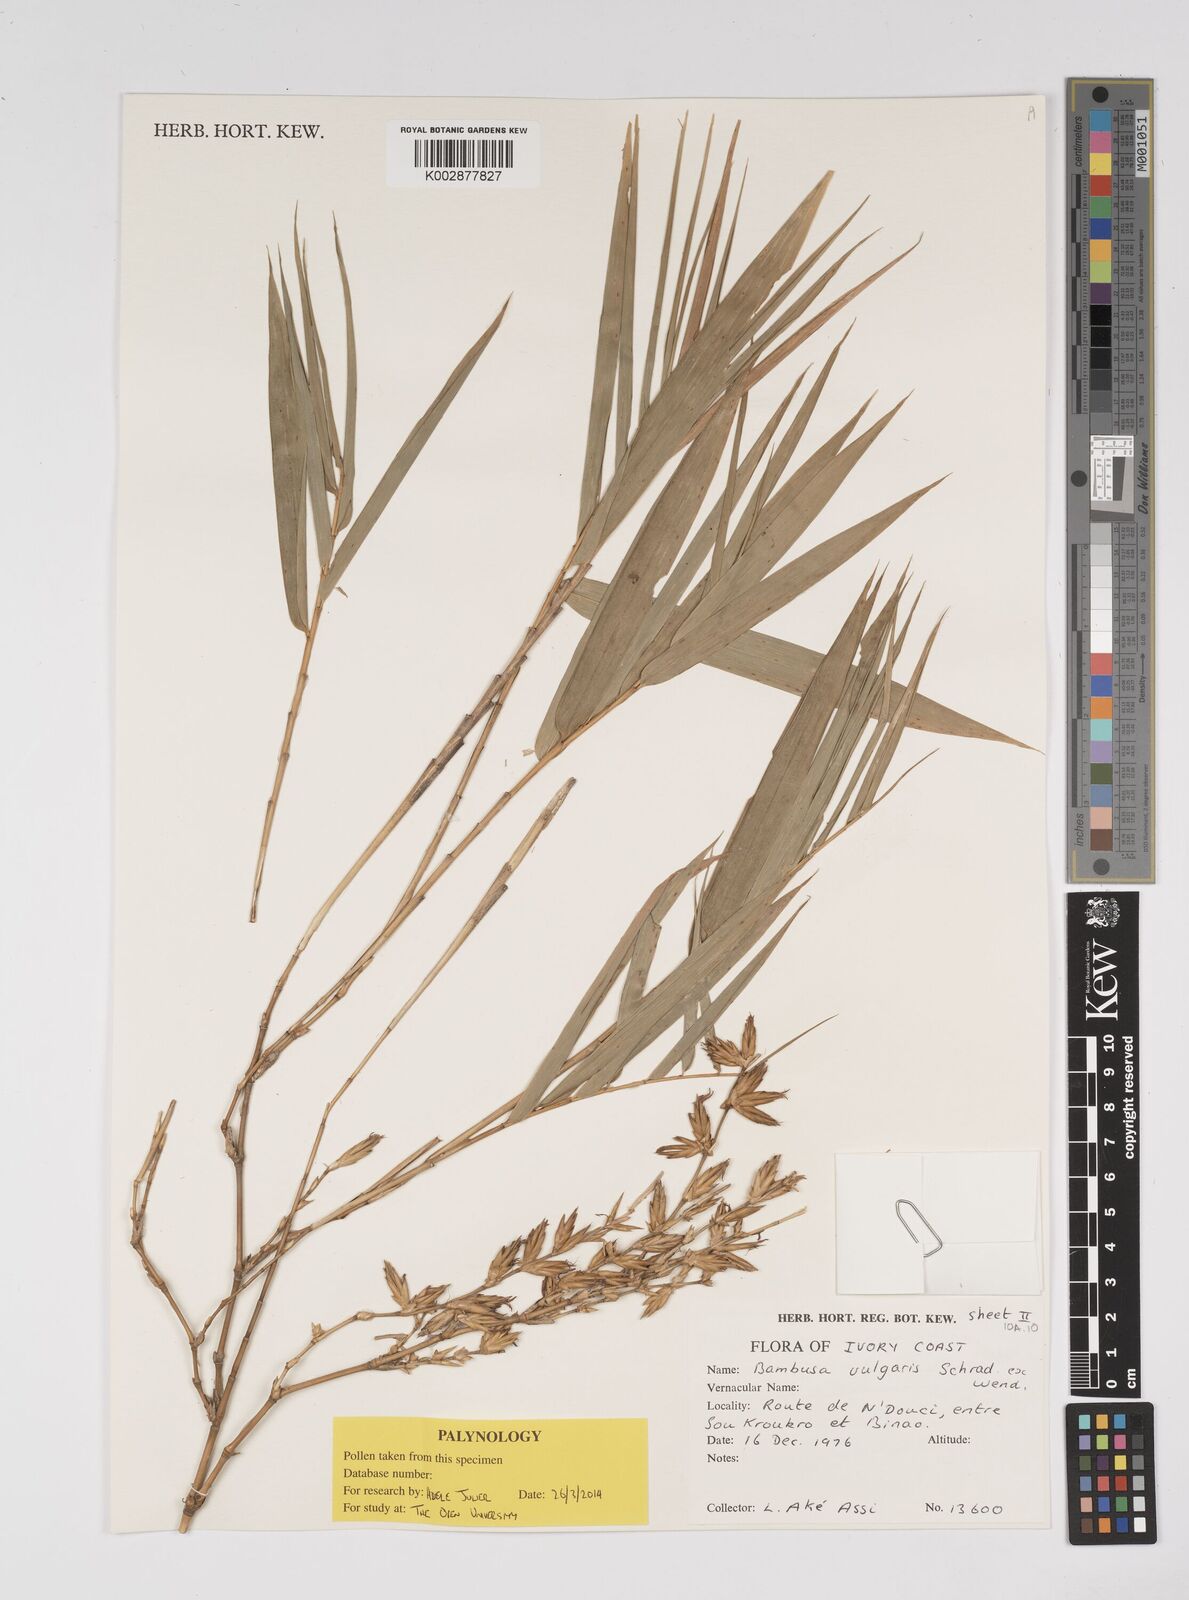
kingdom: Plantae
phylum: Tracheophyta
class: Liliopsida
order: Poales
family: Poaceae
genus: Bambusa
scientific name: Bambusa vulgaris
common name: Common bamboo
